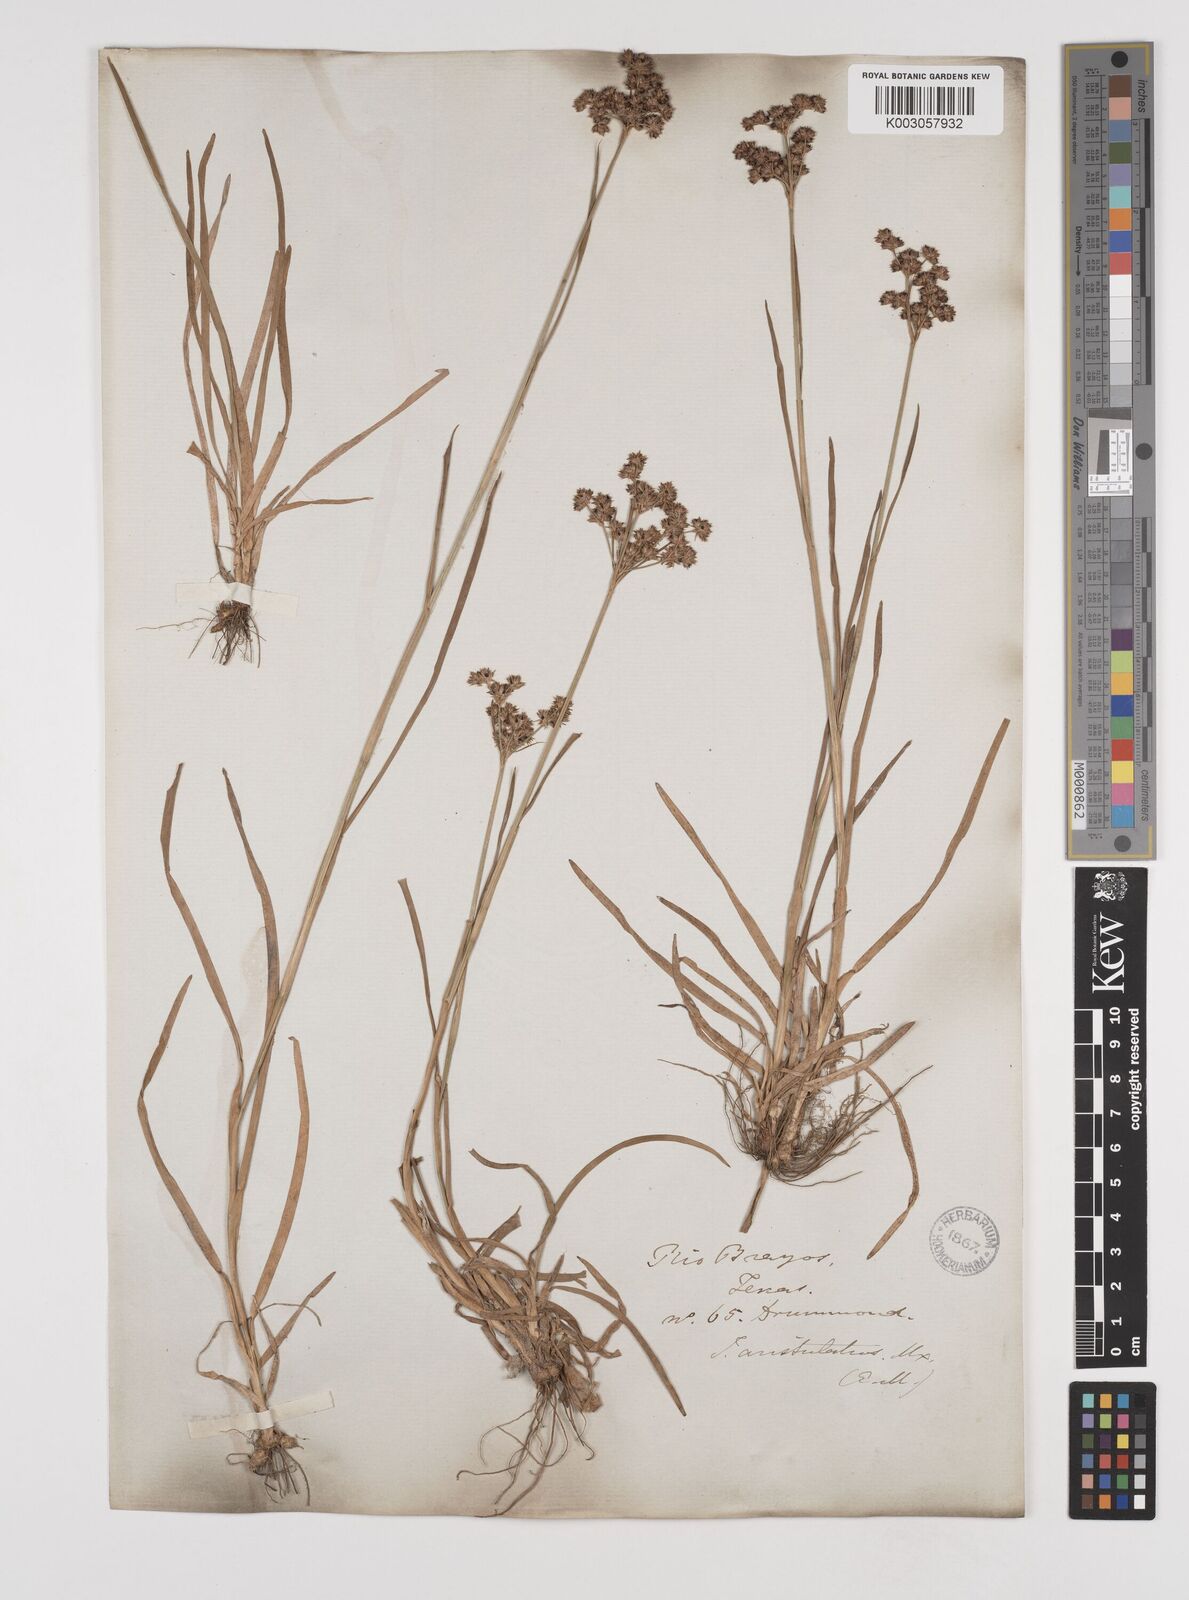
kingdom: Plantae
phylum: Tracheophyta
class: Liliopsida
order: Poales
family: Juncaceae
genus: Juncus
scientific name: Juncus marginatus
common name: Grass-leaf rush
